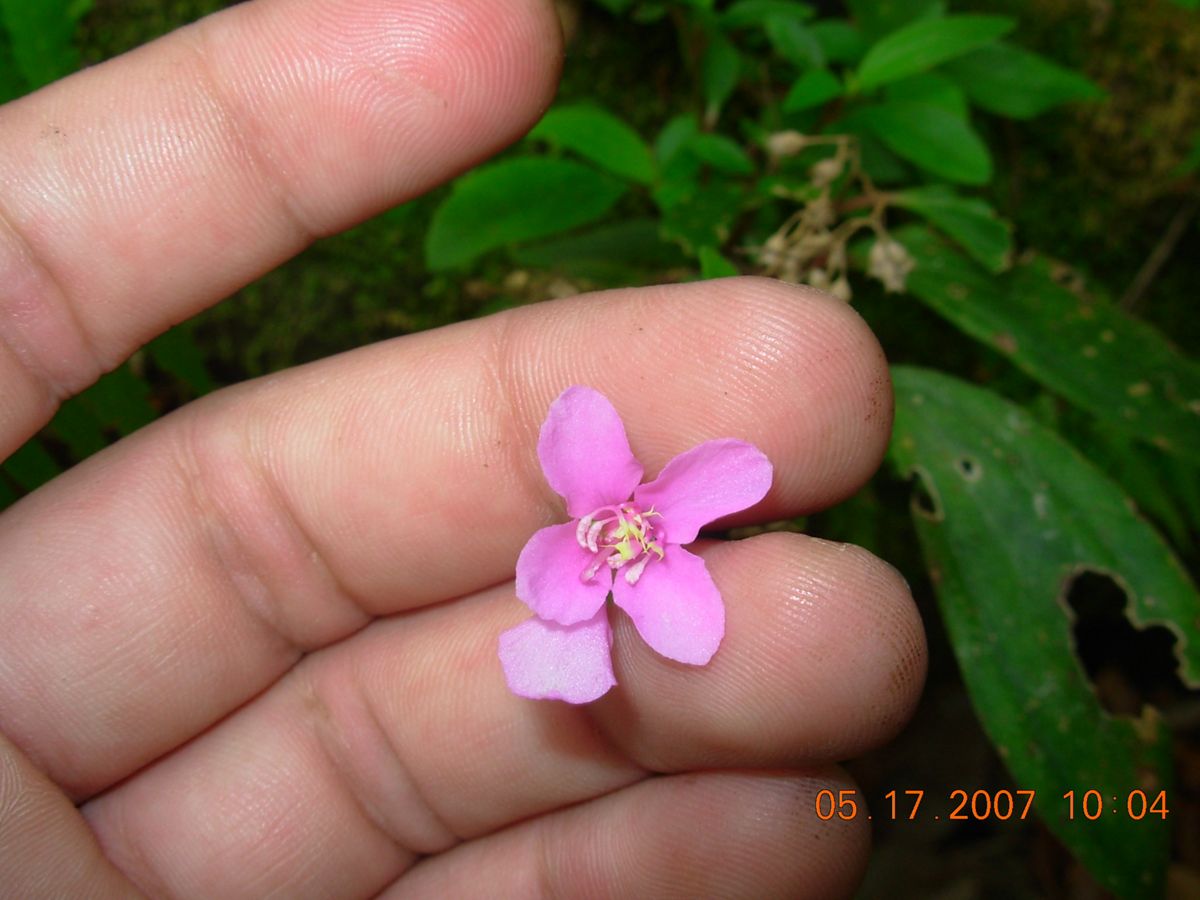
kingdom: Plantae
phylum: Tracheophyta
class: Magnoliopsida
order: Myrtales
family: Melastomataceae
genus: Centradenia
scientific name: Centradenia floribunda
